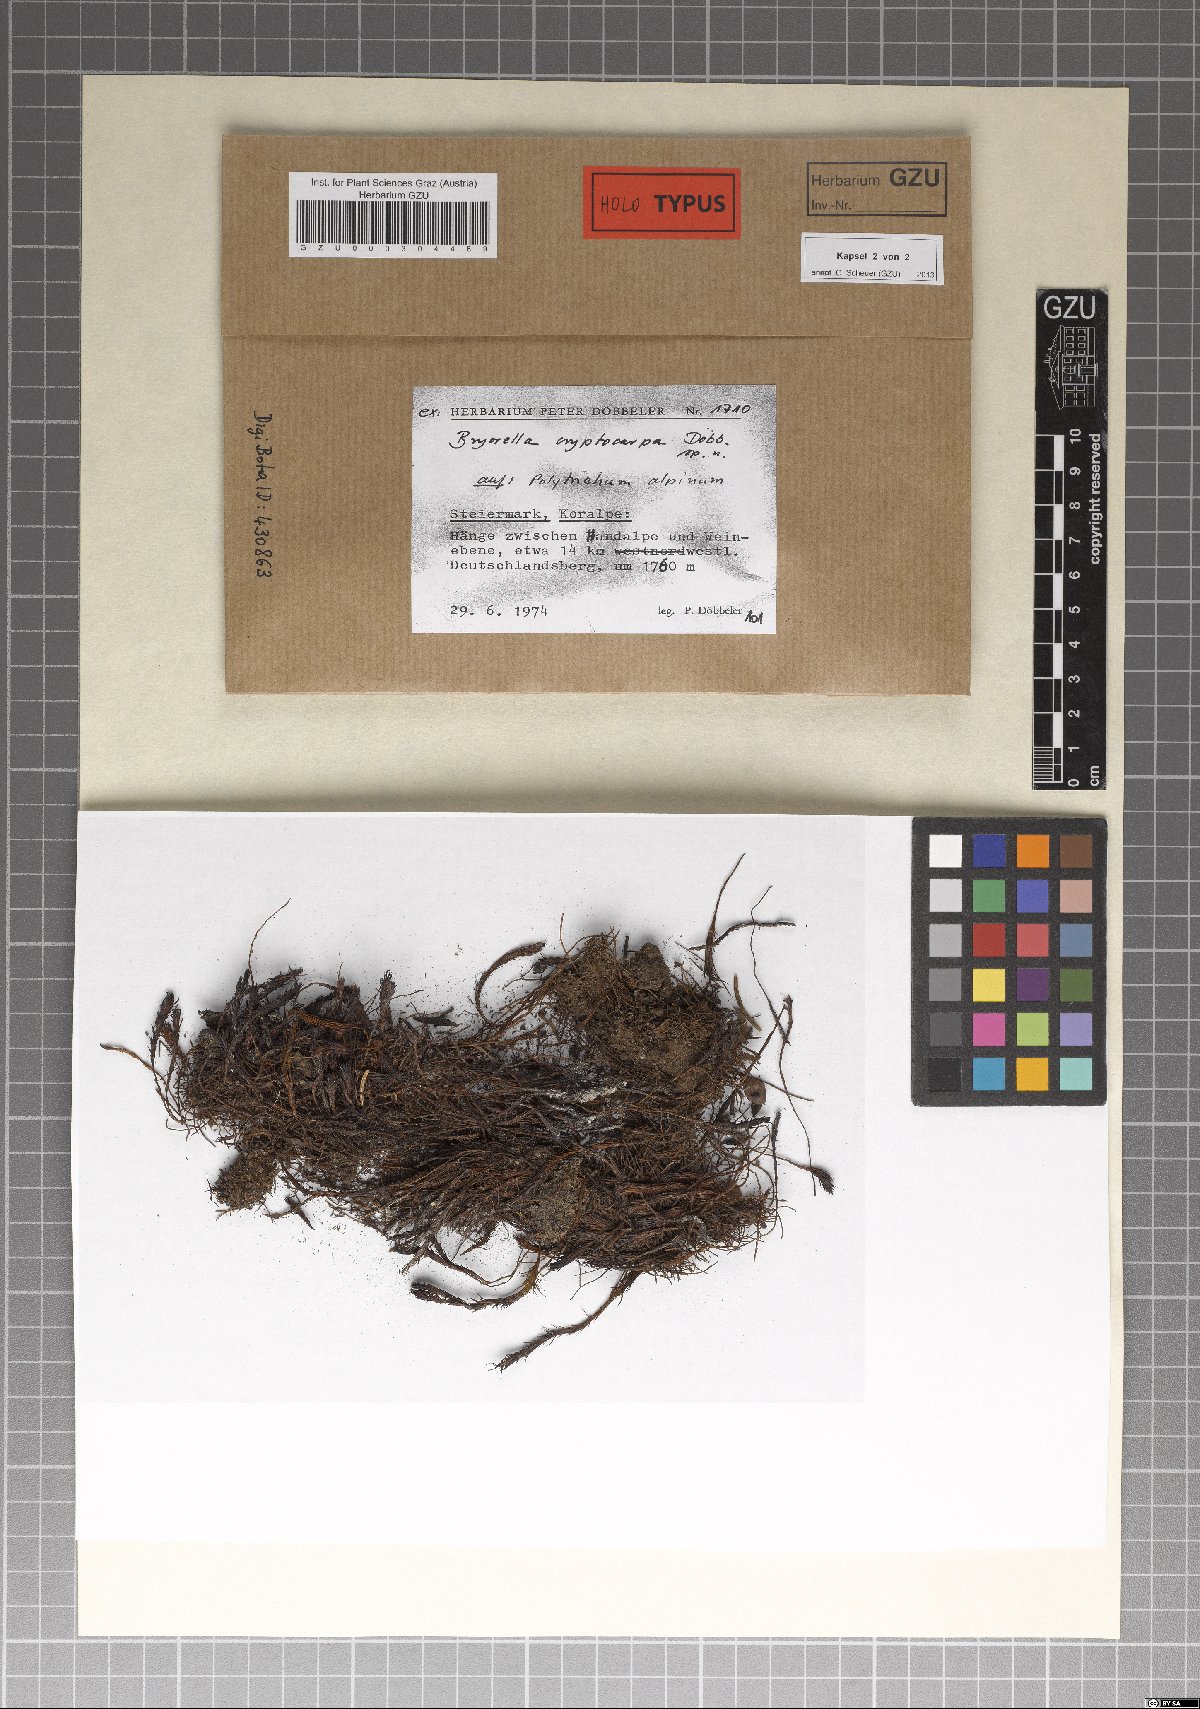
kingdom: Fungi
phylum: Ascomycota
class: Dothideomycetes
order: Dothideales
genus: Bryorella
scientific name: Bryorella cryptocarpa
